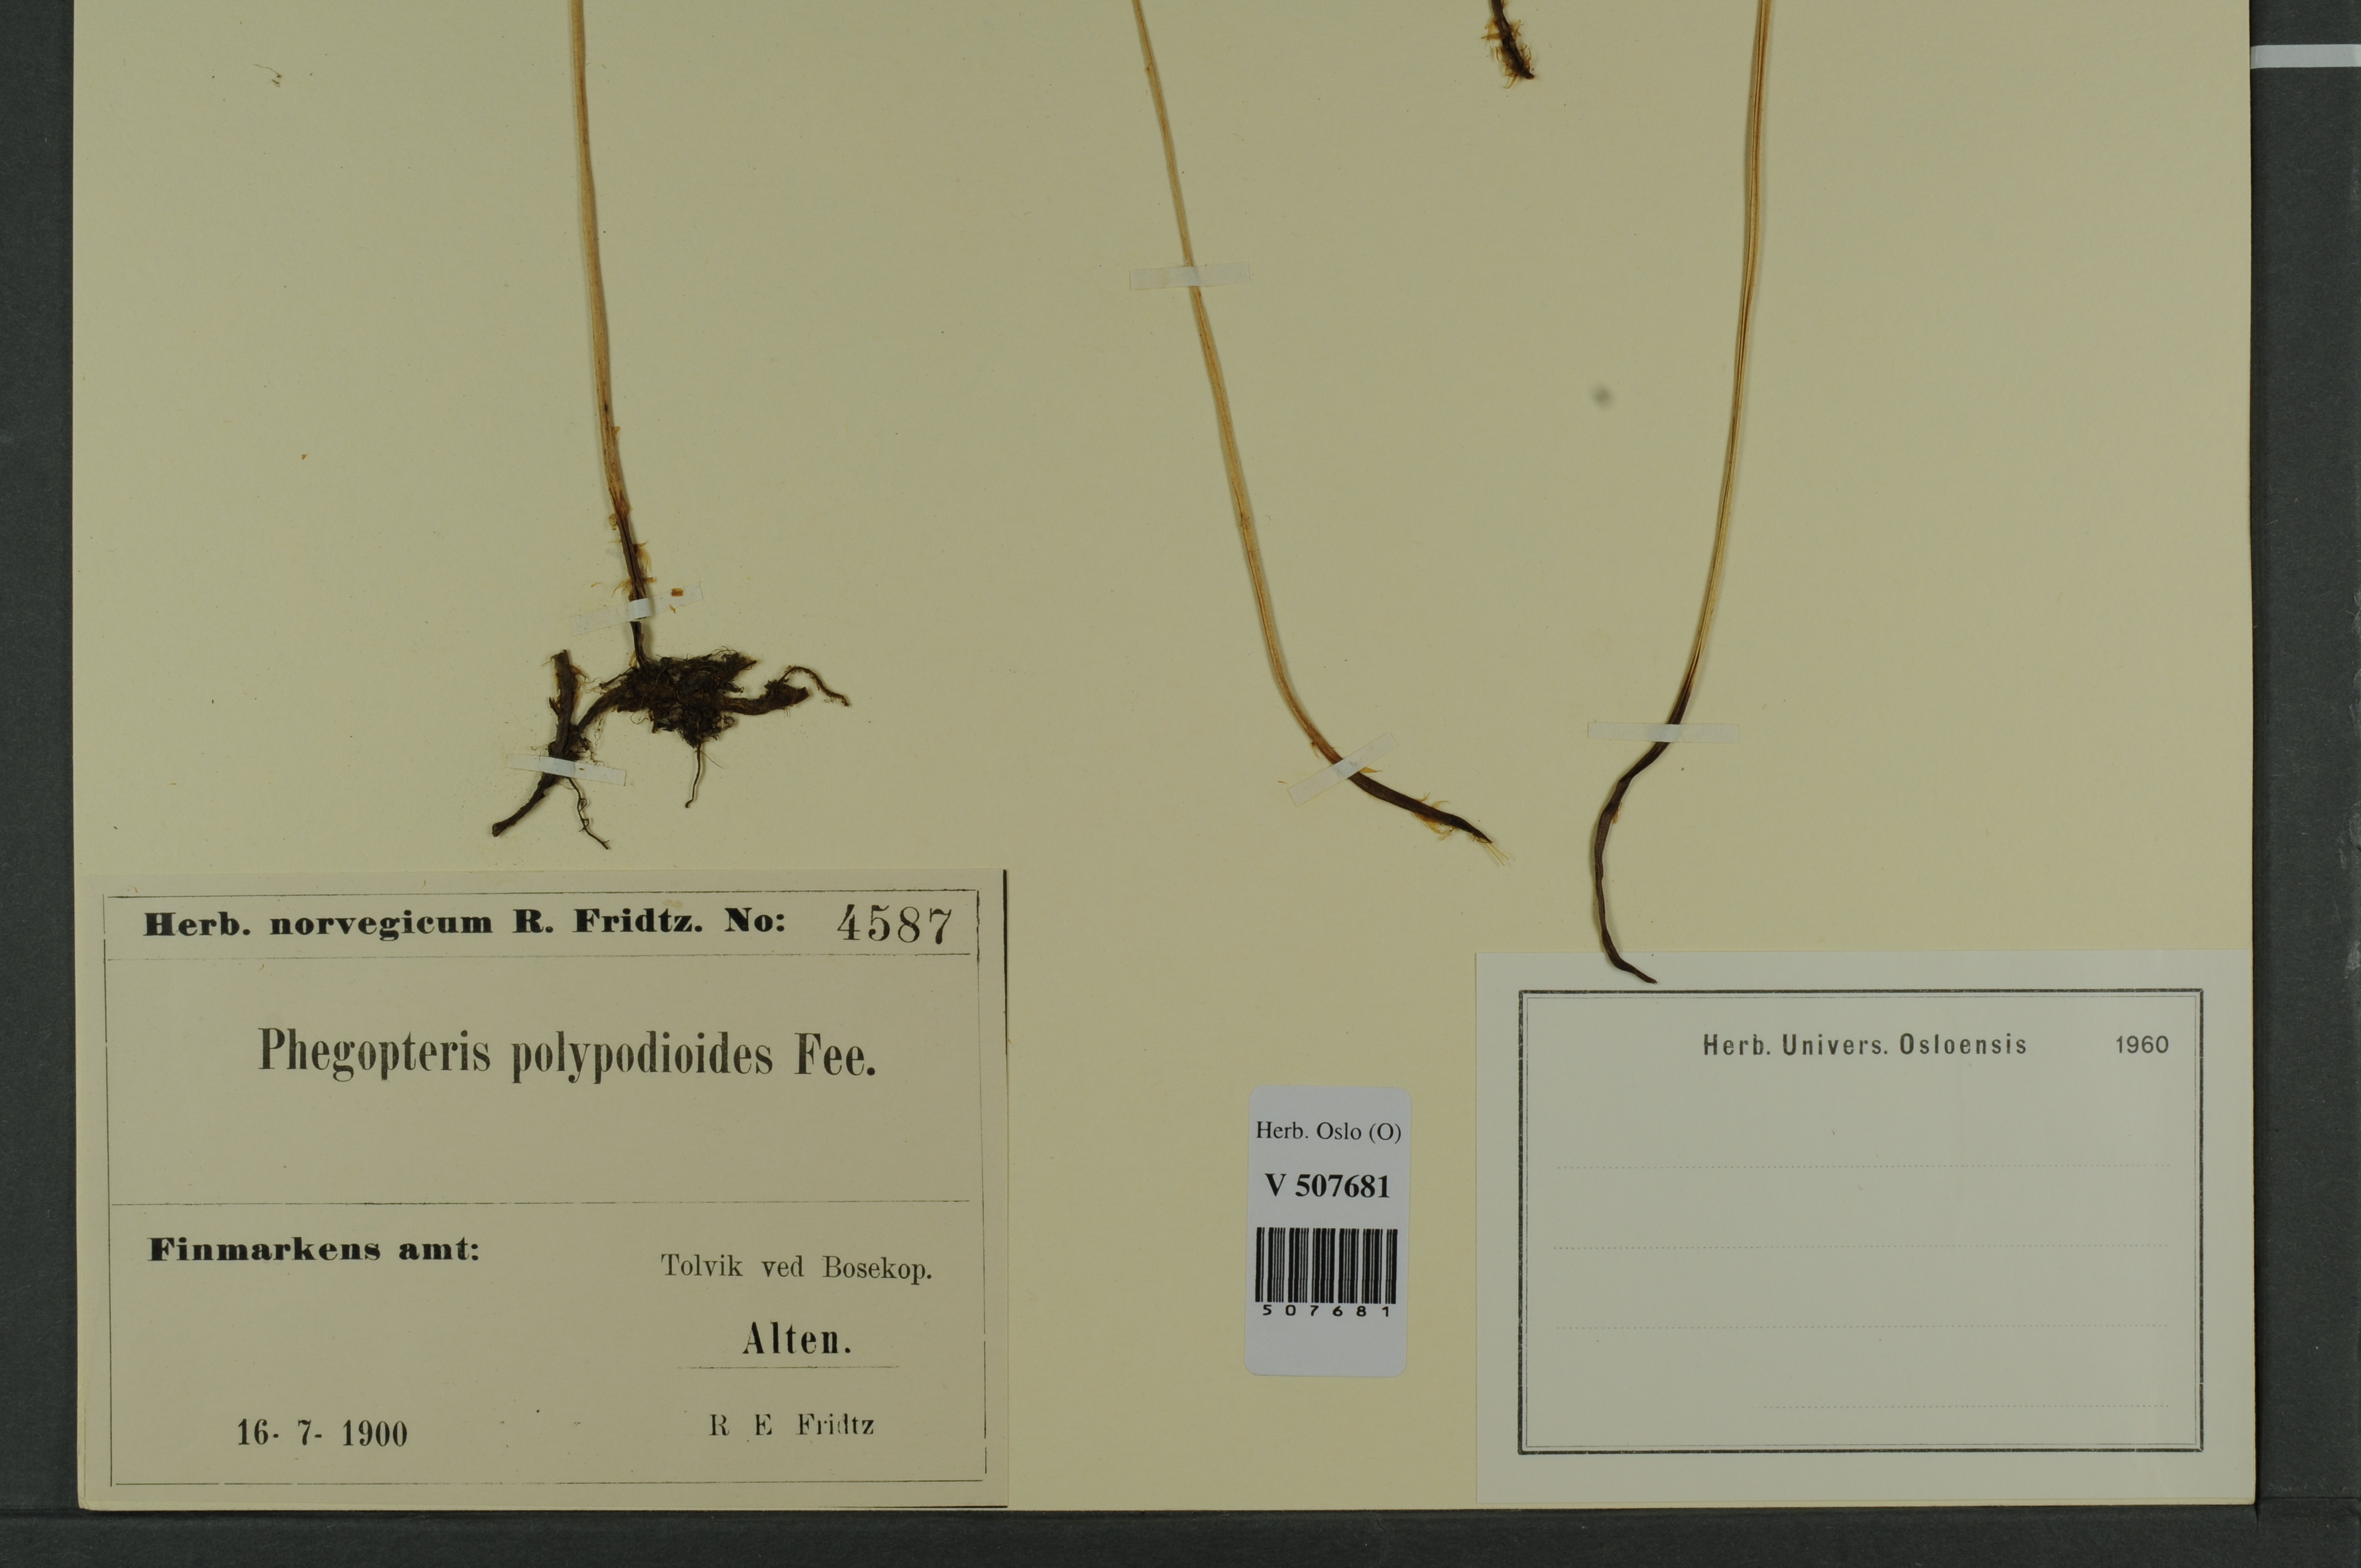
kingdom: Plantae
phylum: Tracheophyta
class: Polypodiopsida
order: Polypodiales
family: Thelypteridaceae
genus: Phegopteris
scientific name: Phegopteris connectilis
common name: Beech fern
